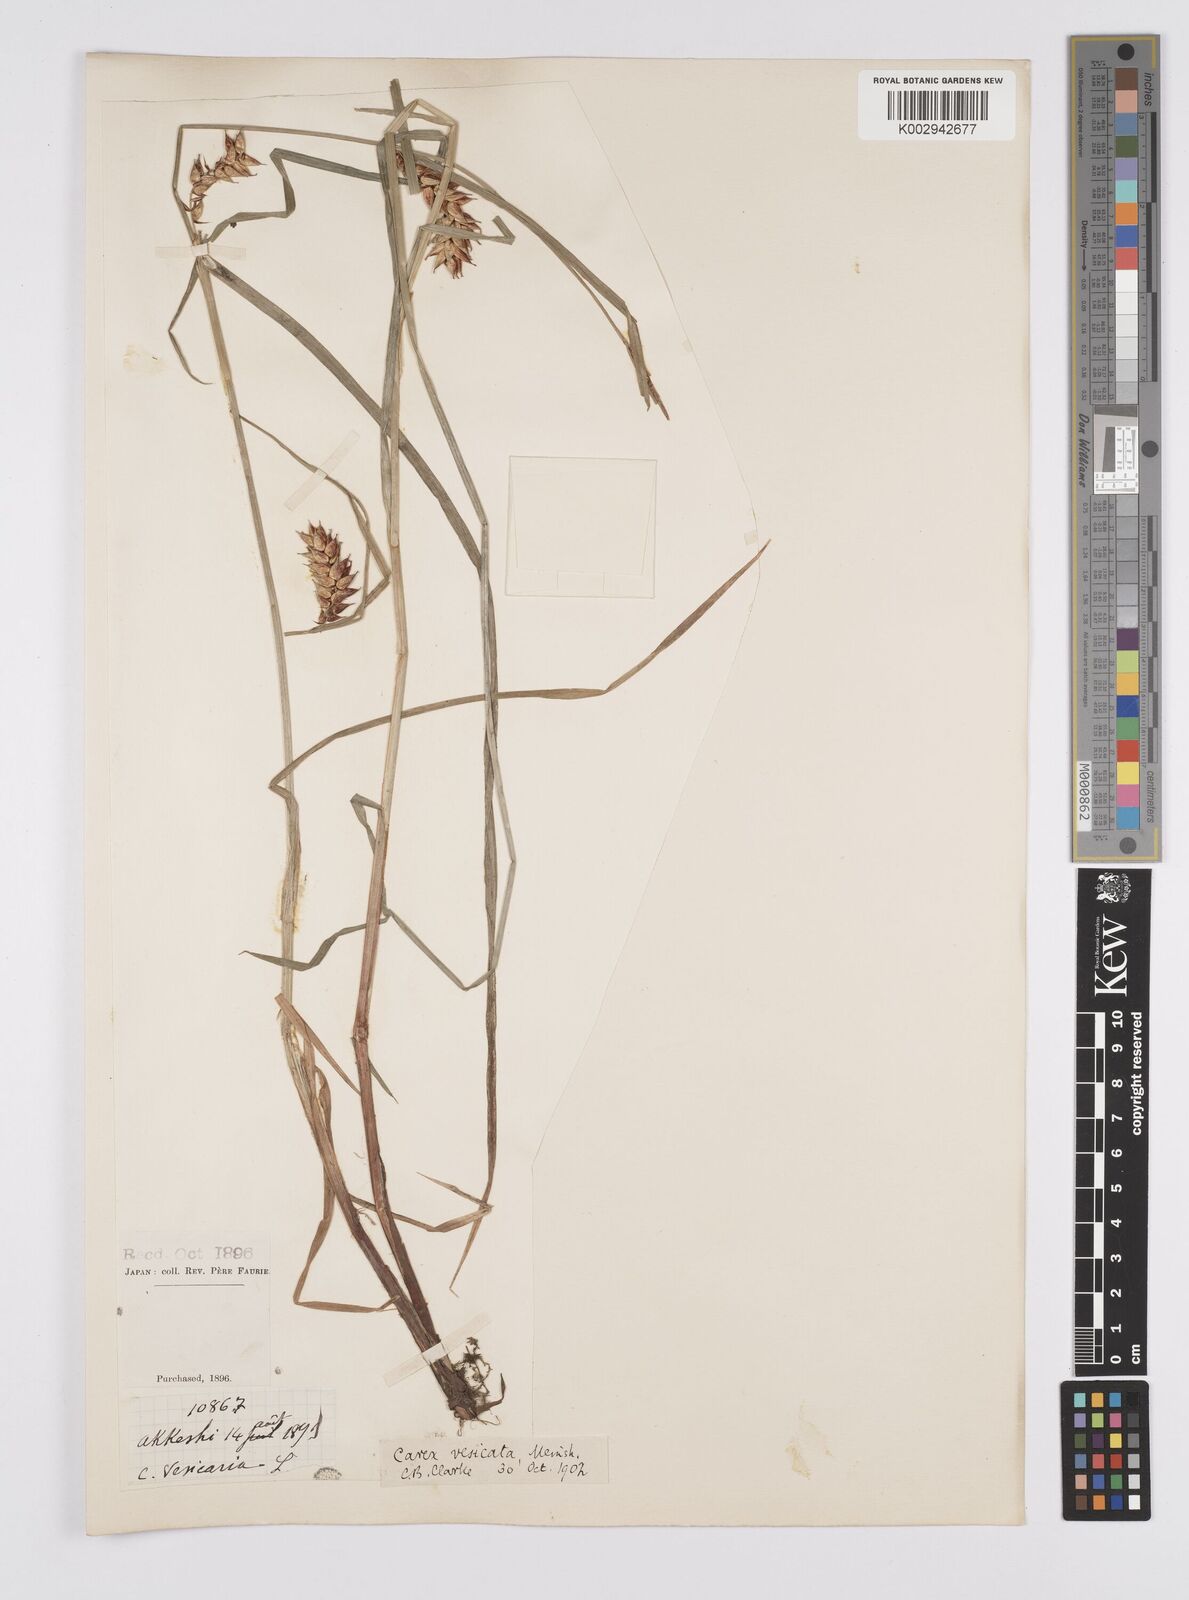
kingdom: Plantae
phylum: Tracheophyta
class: Liliopsida
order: Poales
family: Cyperaceae
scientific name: Cyperaceae
